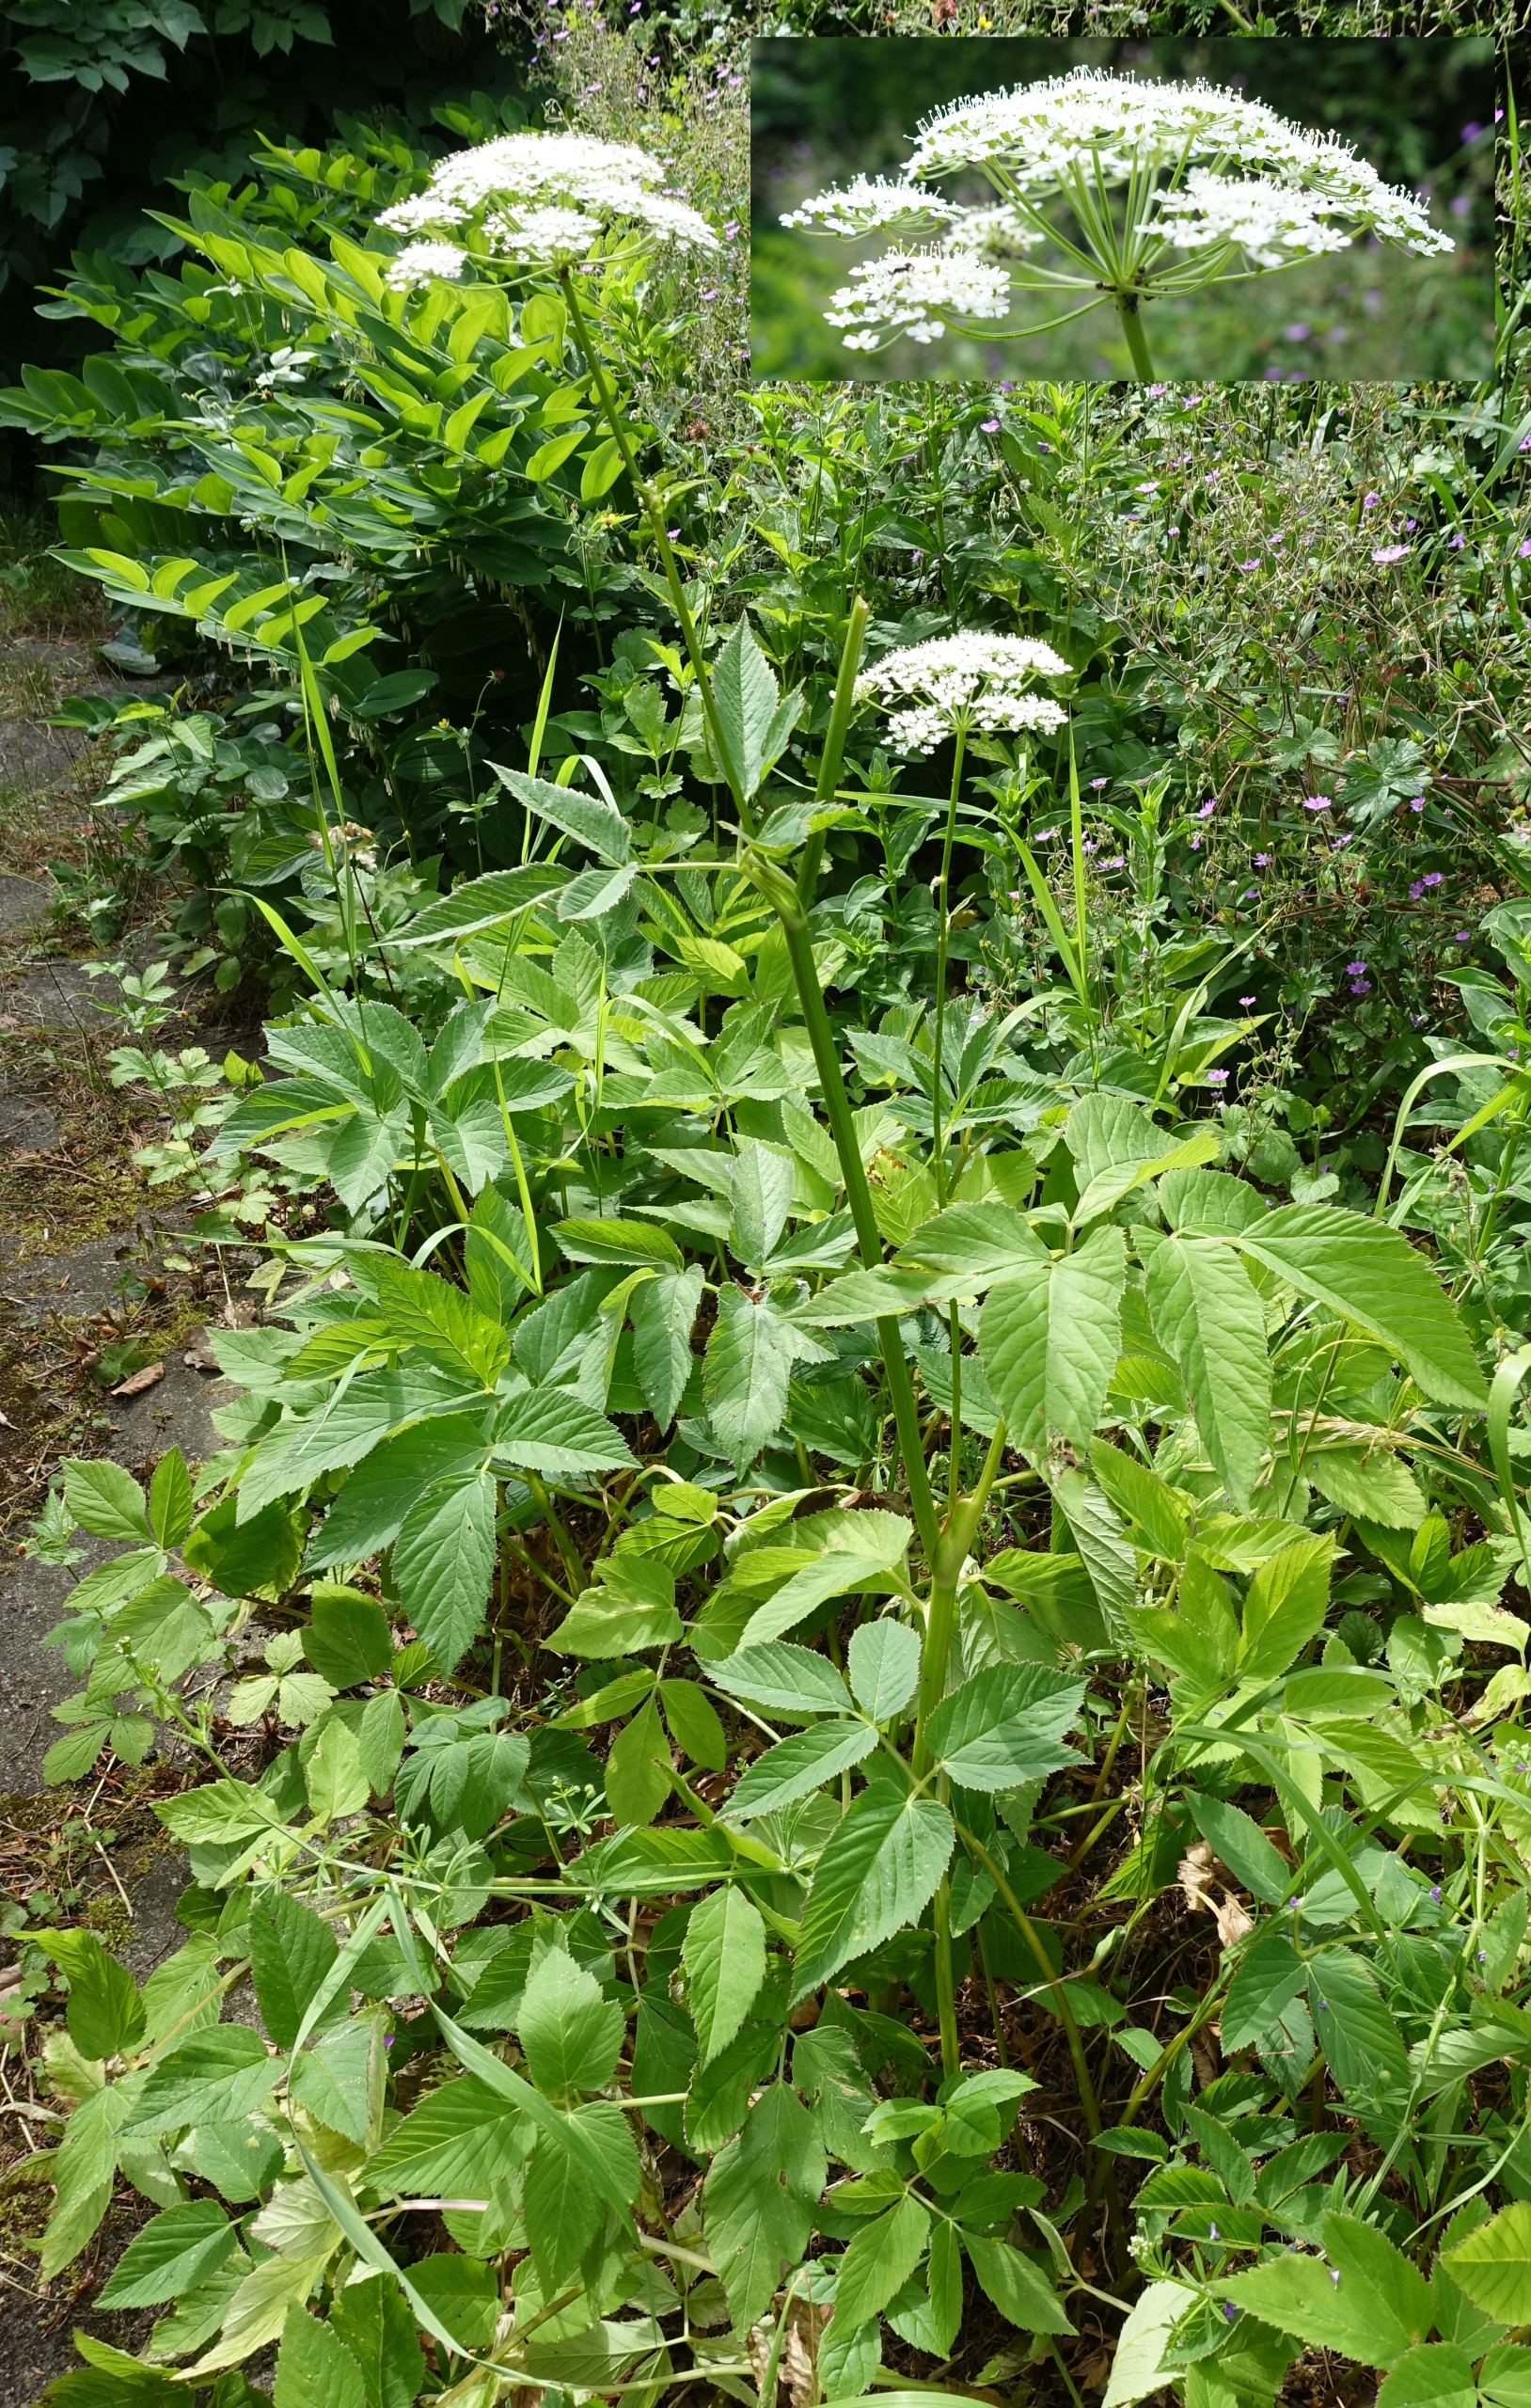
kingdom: Plantae
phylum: Tracheophyta
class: Magnoliopsida
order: Apiales
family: Apiaceae
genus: Aegopodium
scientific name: Aegopodium podagraria
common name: Skvalderkål
